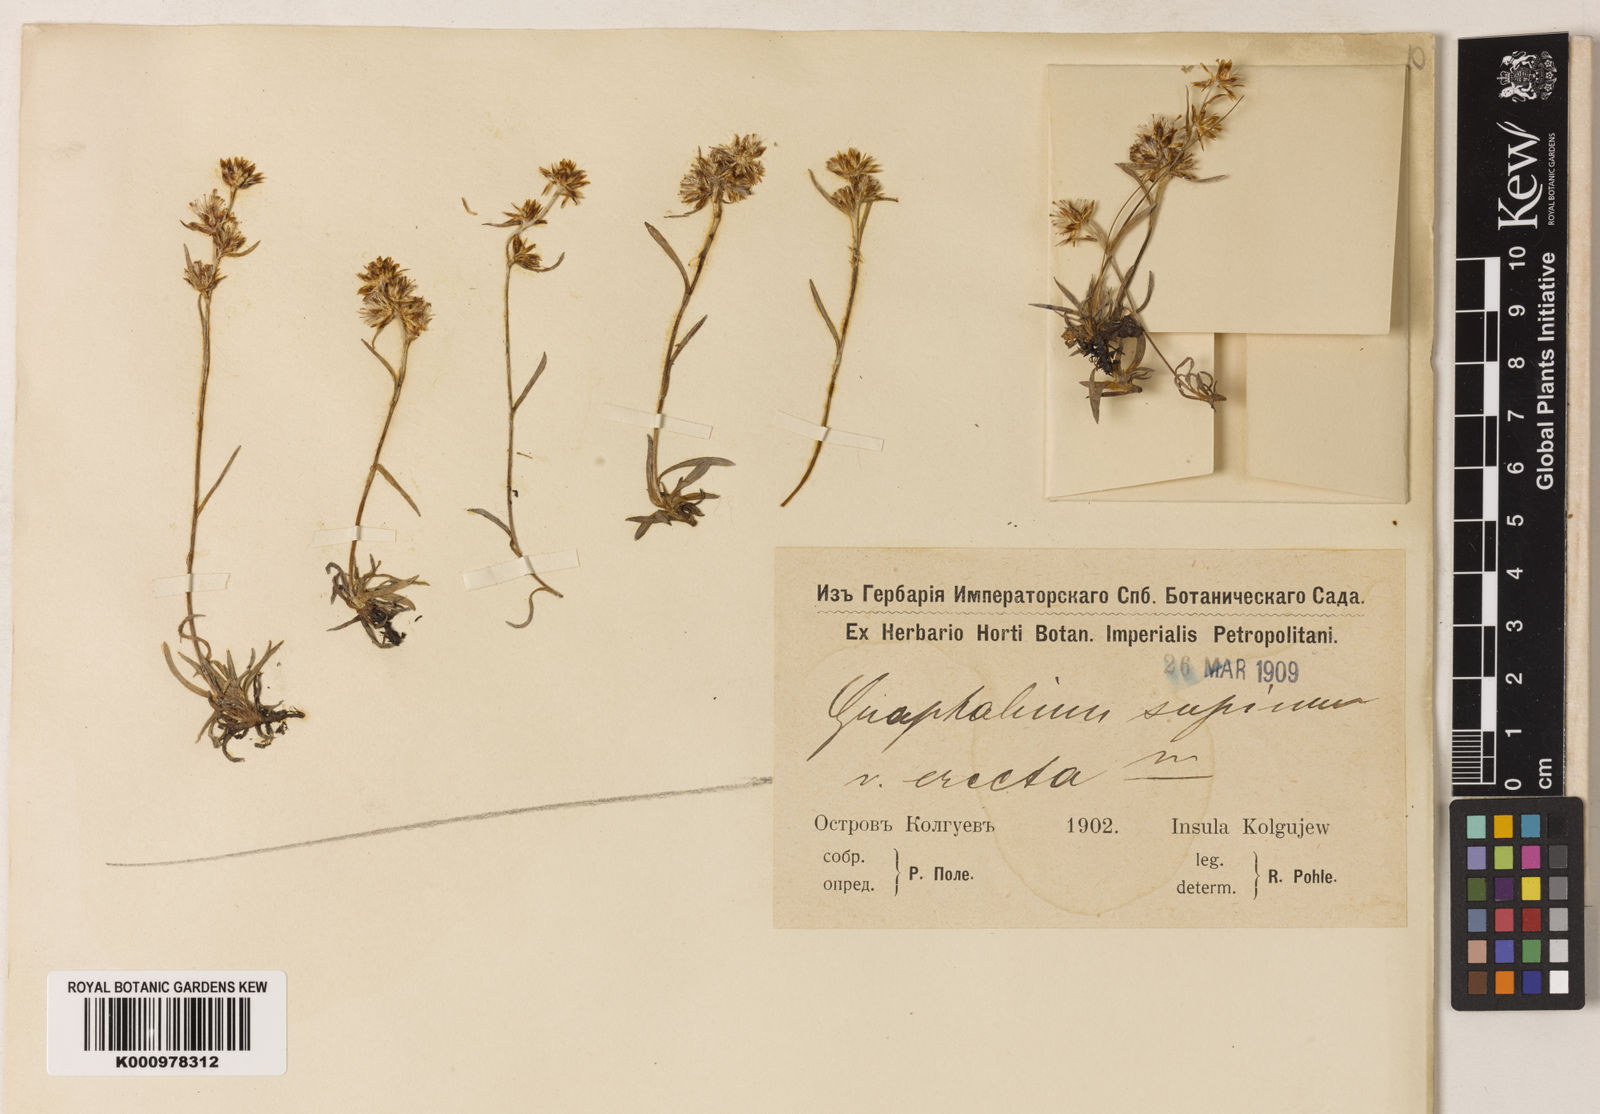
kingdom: Plantae
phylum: Tracheophyta
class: Magnoliopsida
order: Asterales
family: Asteraceae
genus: Omalotheca
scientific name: Omalotheca supina
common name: Alpine arctic-cudweed
